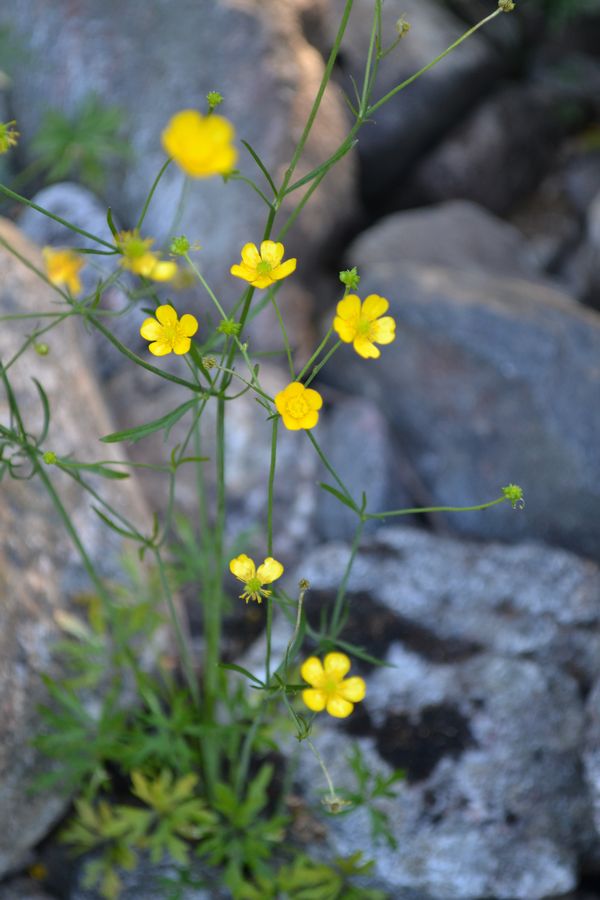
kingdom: Plantae
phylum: Tracheophyta
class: Magnoliopsida
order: Ranunculales
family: Ranunculaceae
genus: Ranunculus
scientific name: Ranunculus acris
